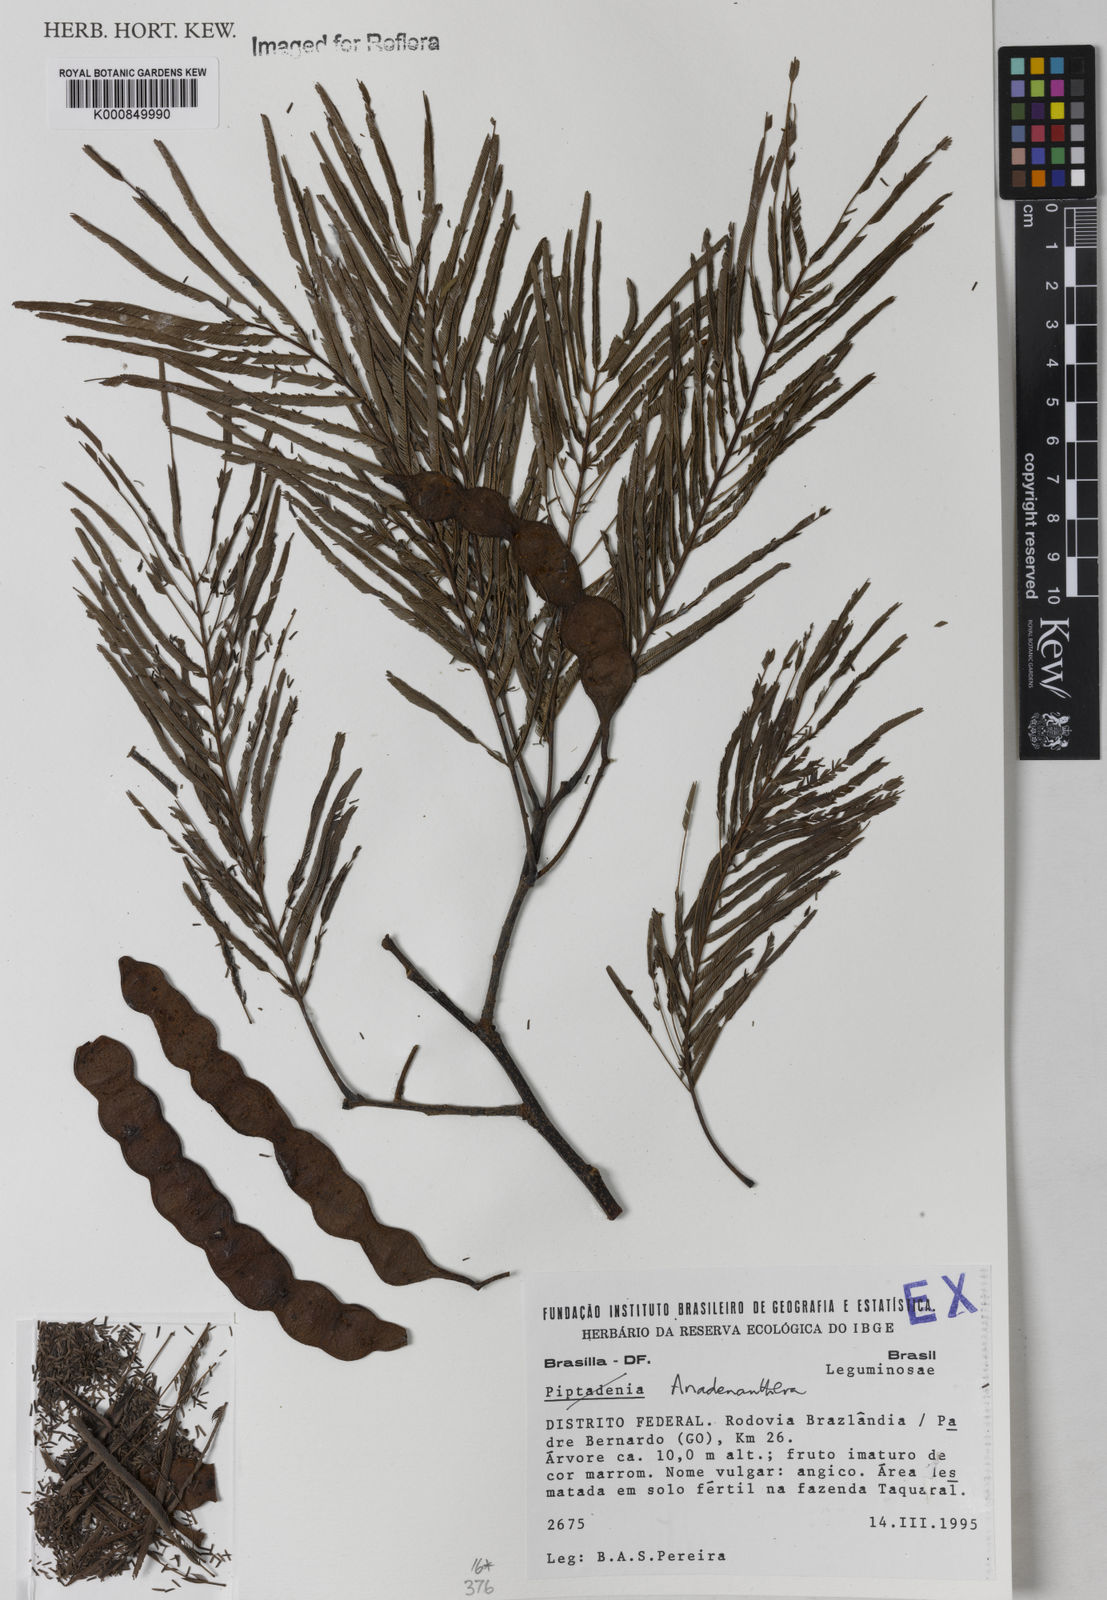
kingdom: Plantae
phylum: Tracheophyta
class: Magnoliopsida
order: Fabales
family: Fabaceae
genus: Piptadenia
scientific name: Piptadenia
